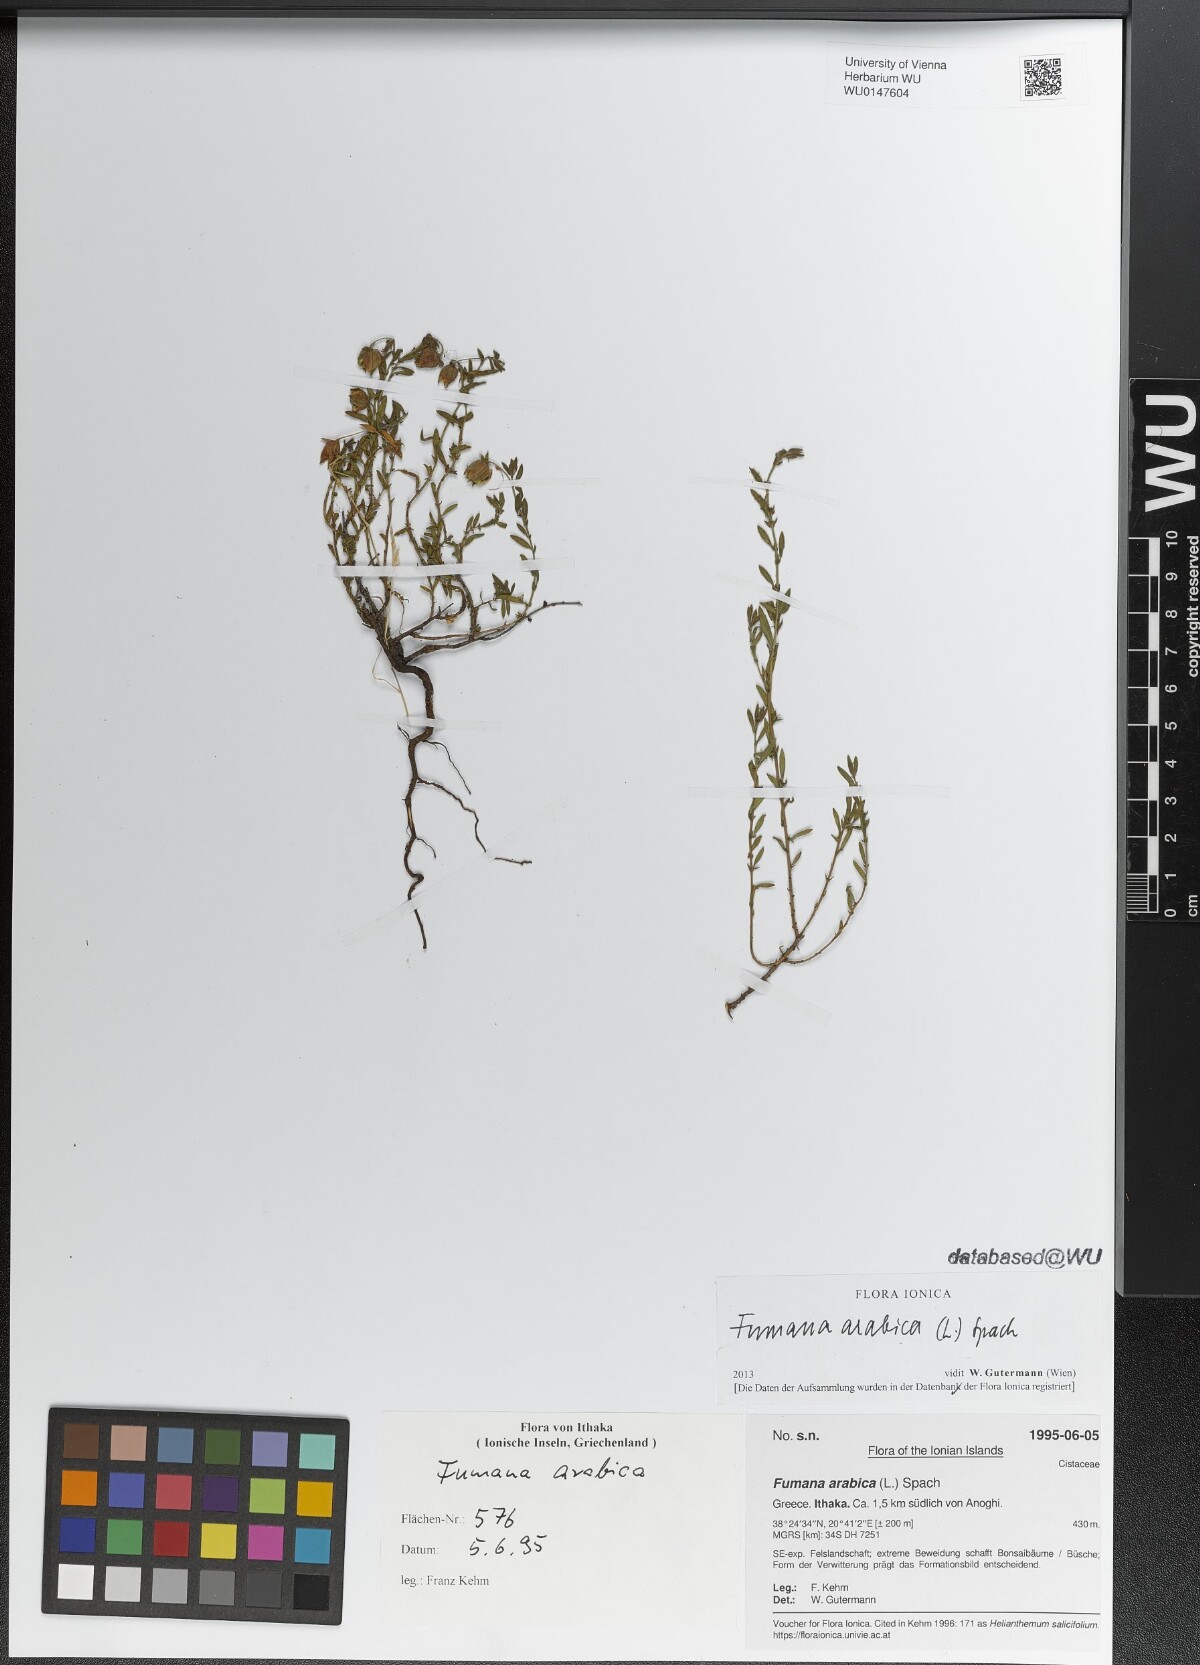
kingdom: Plantae
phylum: Tracheophyta
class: Magnoliopsida
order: Malvales
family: Cistaceae
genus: Fumana
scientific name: Fumana arabica
